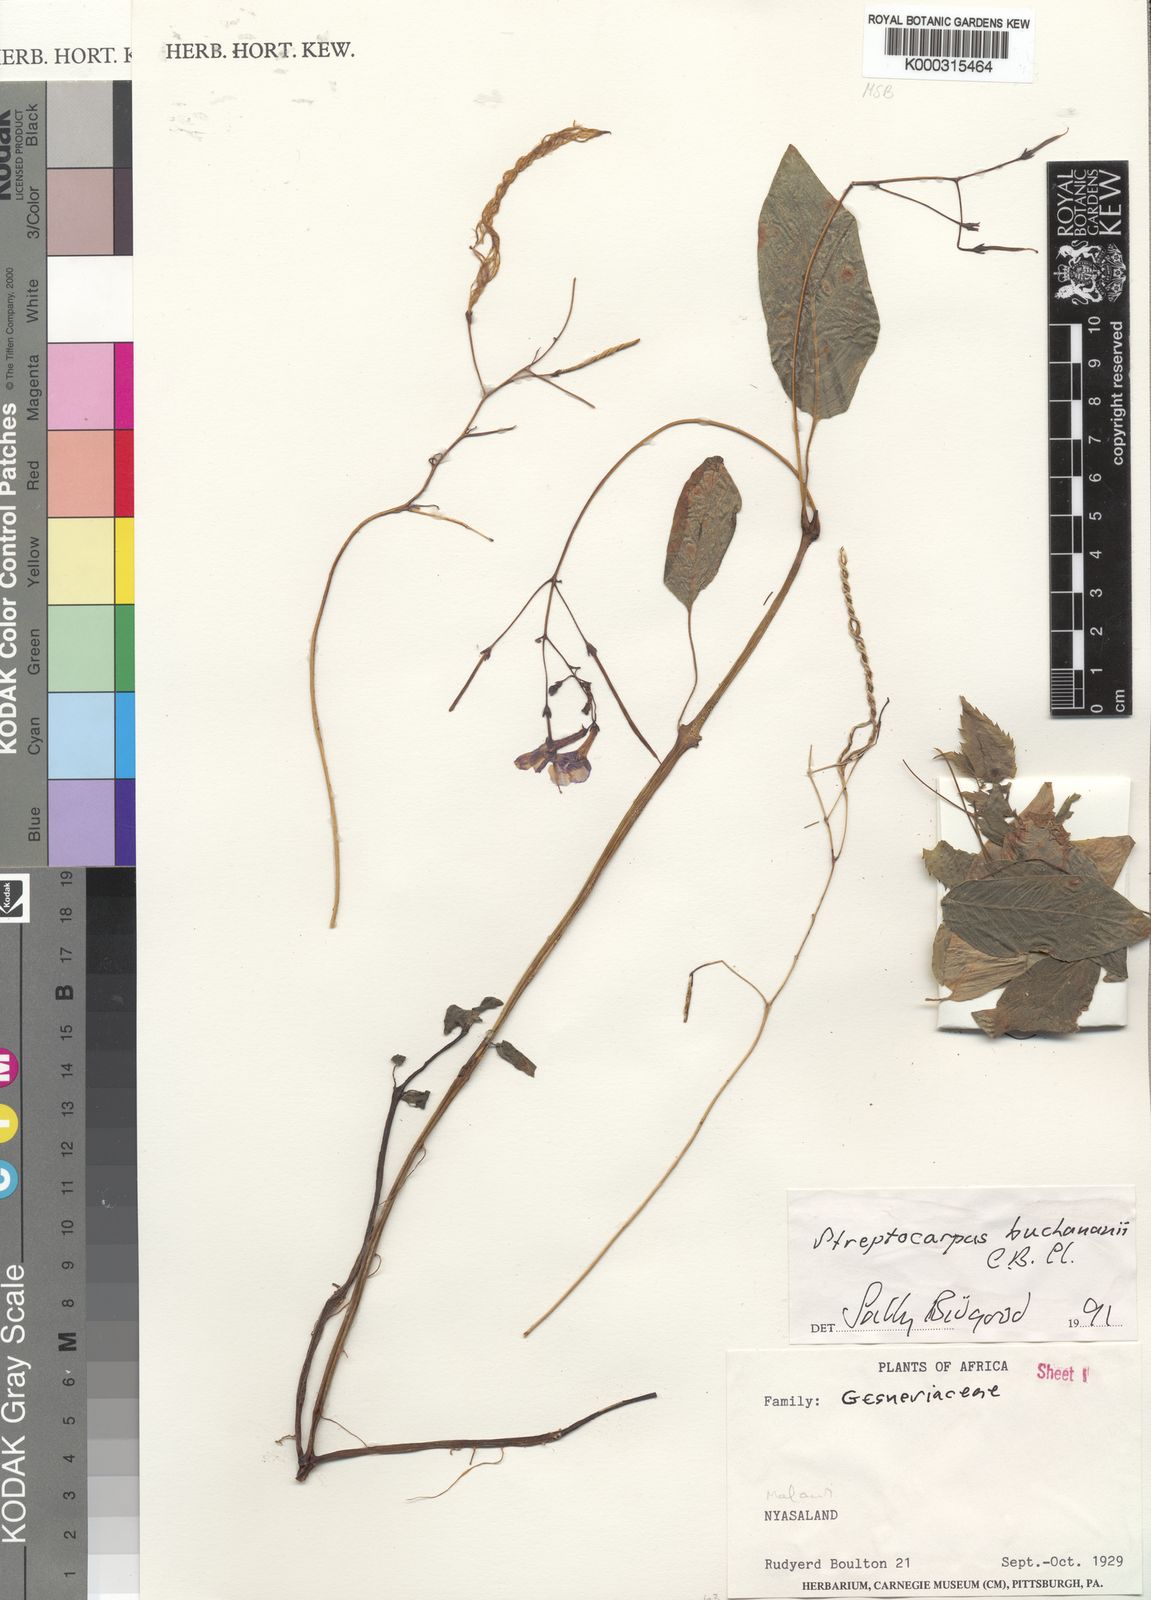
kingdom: Plantae
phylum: Tracheophyta
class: Magnoliopsida
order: Lamiales
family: Gesneriaceae
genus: Streptocarpus
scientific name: Streptocarpus buchananii
